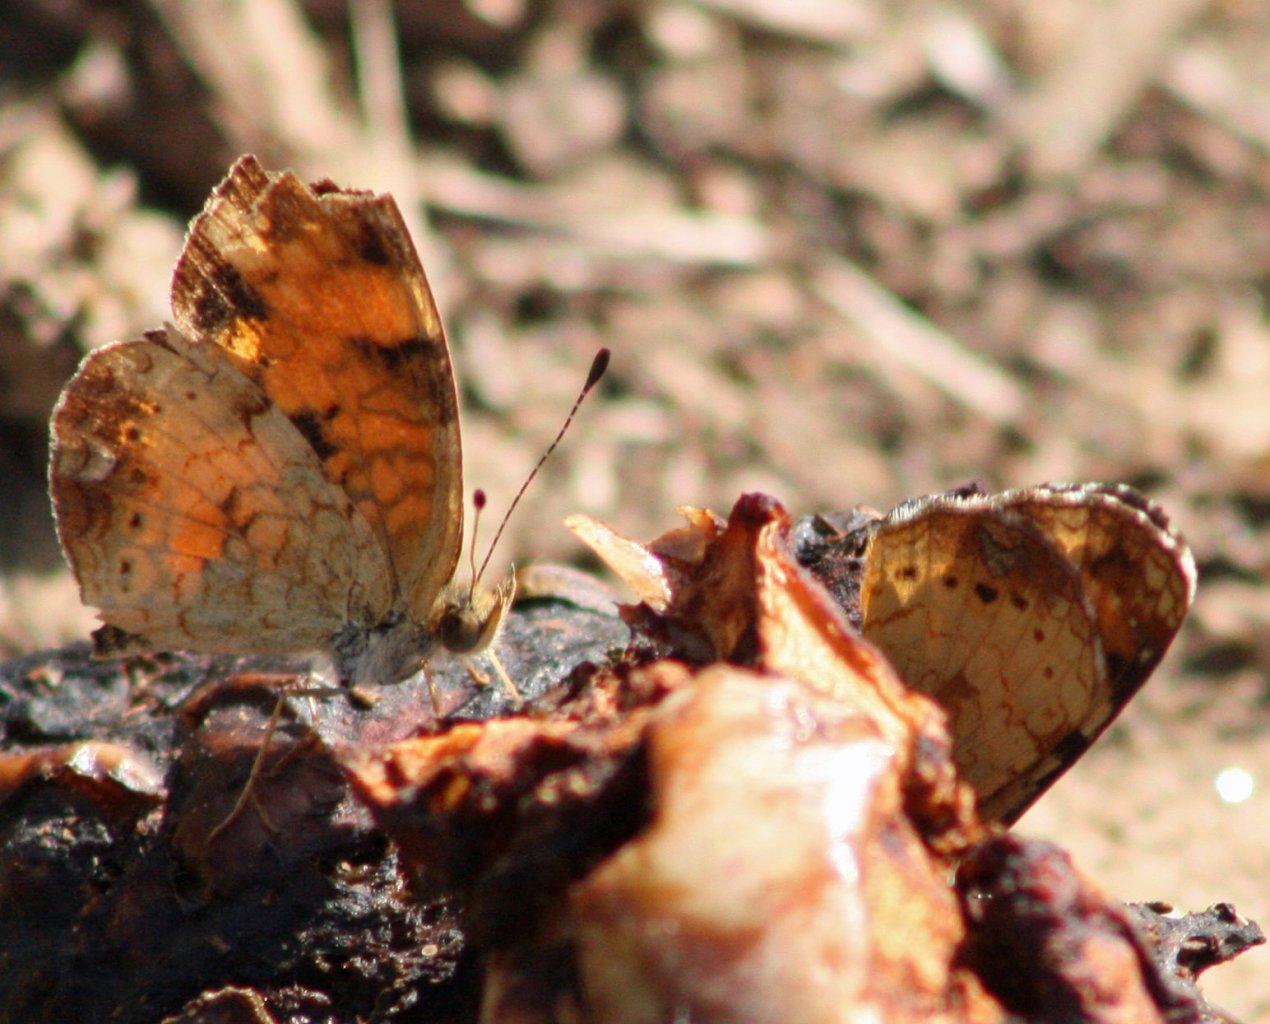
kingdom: Animalia
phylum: Arthropoda
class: Insecta
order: Lepidoptera
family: Nymphalidae
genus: Phyciodes
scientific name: Phyciodes tharos
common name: Pearl Crescent
